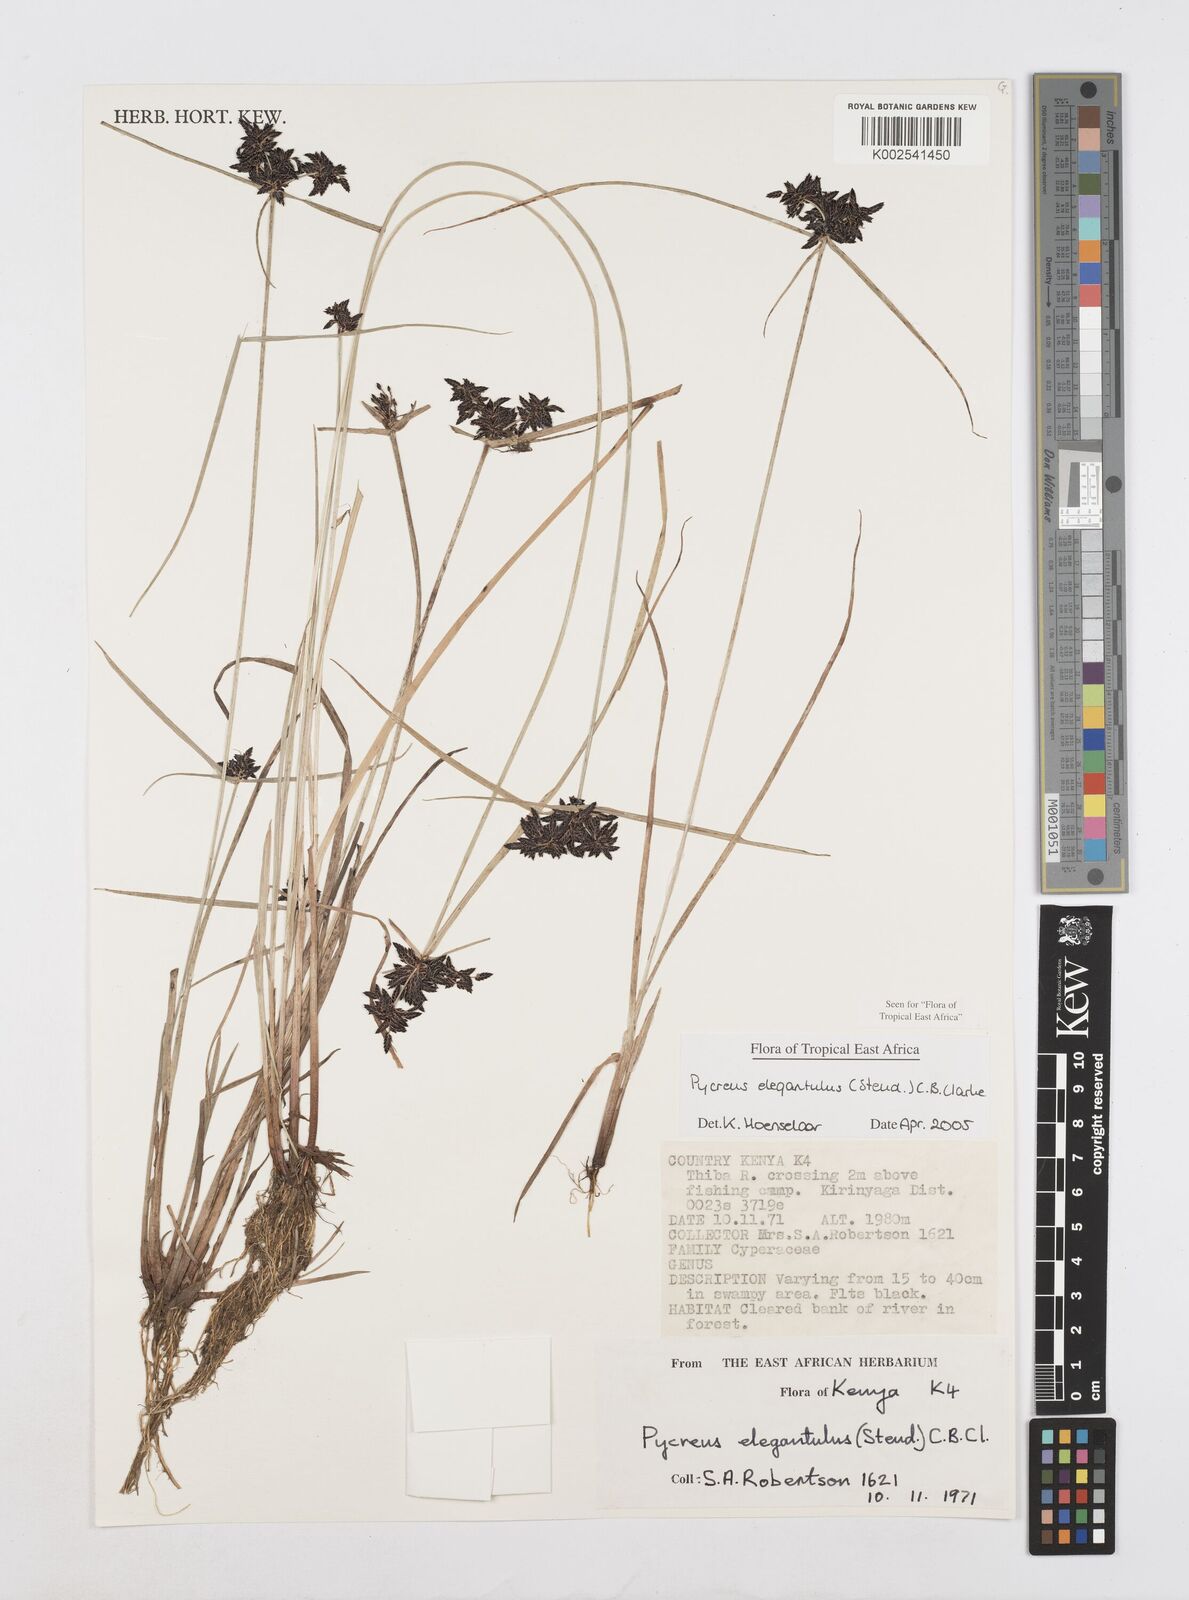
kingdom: Plantae
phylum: Tracheophyta
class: Liliopsida
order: Poales
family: Cyperaceae
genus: Cyperus
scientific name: Cyperus elegantulus
